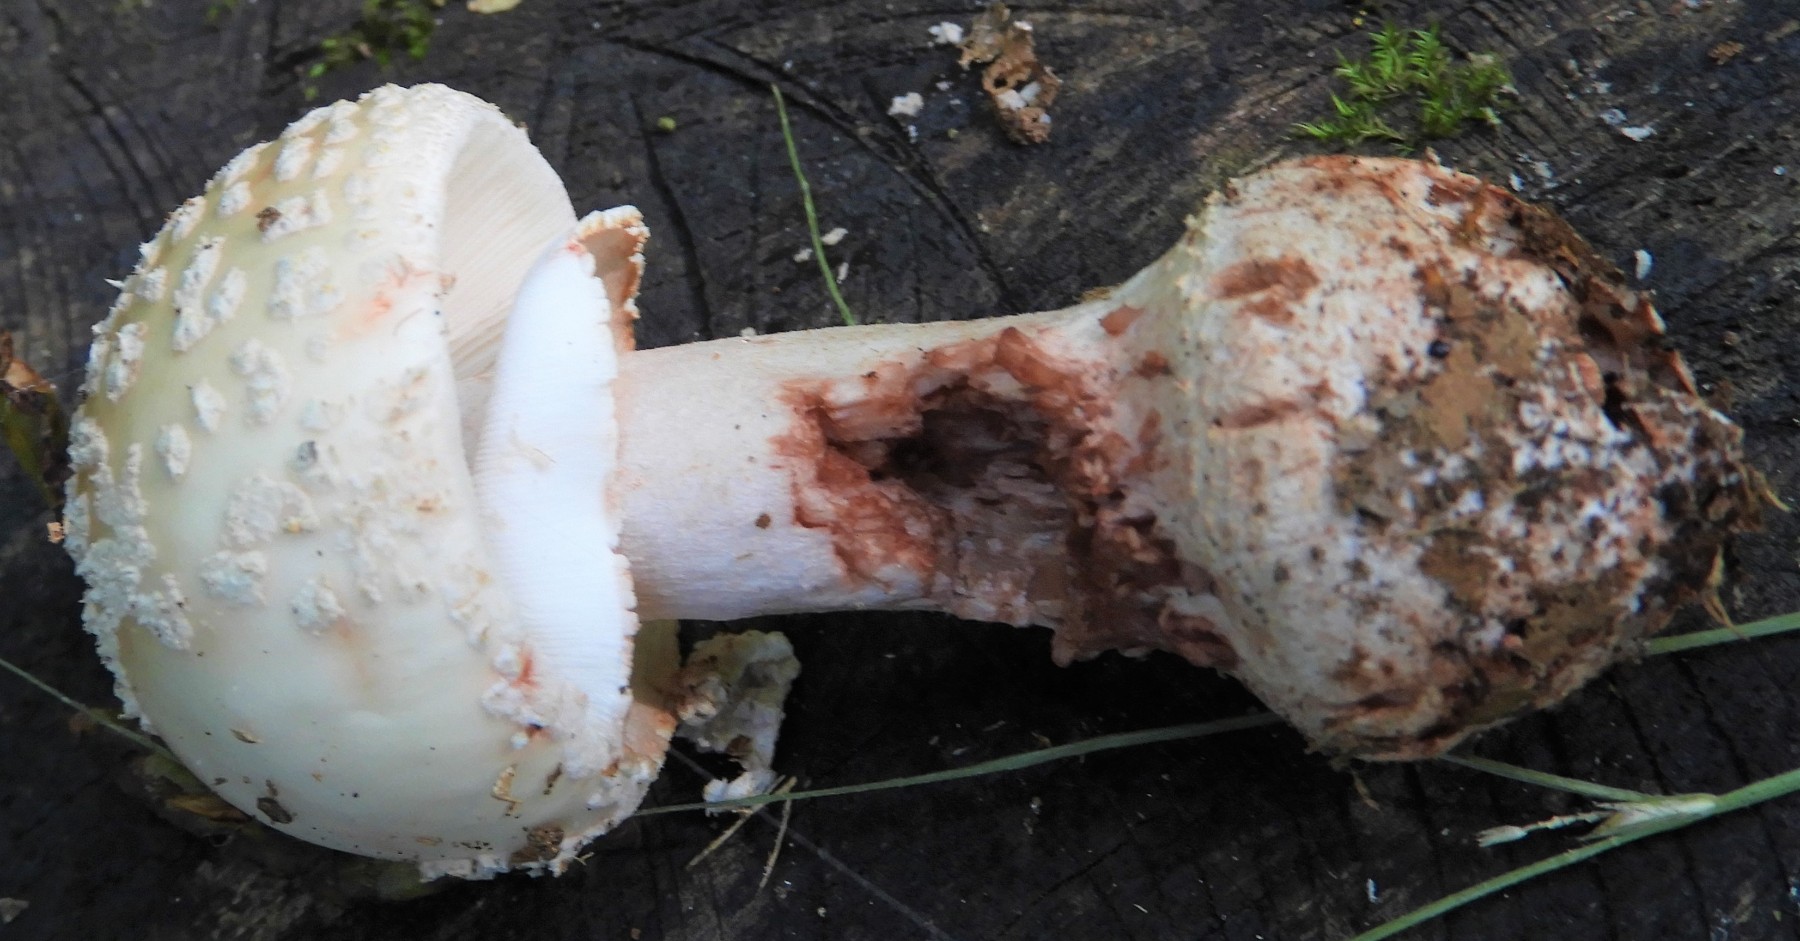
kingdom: Fungi
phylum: Basidiomycota
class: Agaricomycetes
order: Agaricales
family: Amanitaceae
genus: Amanita
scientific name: Amanita rubescens
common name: rødmende fluesvamp
